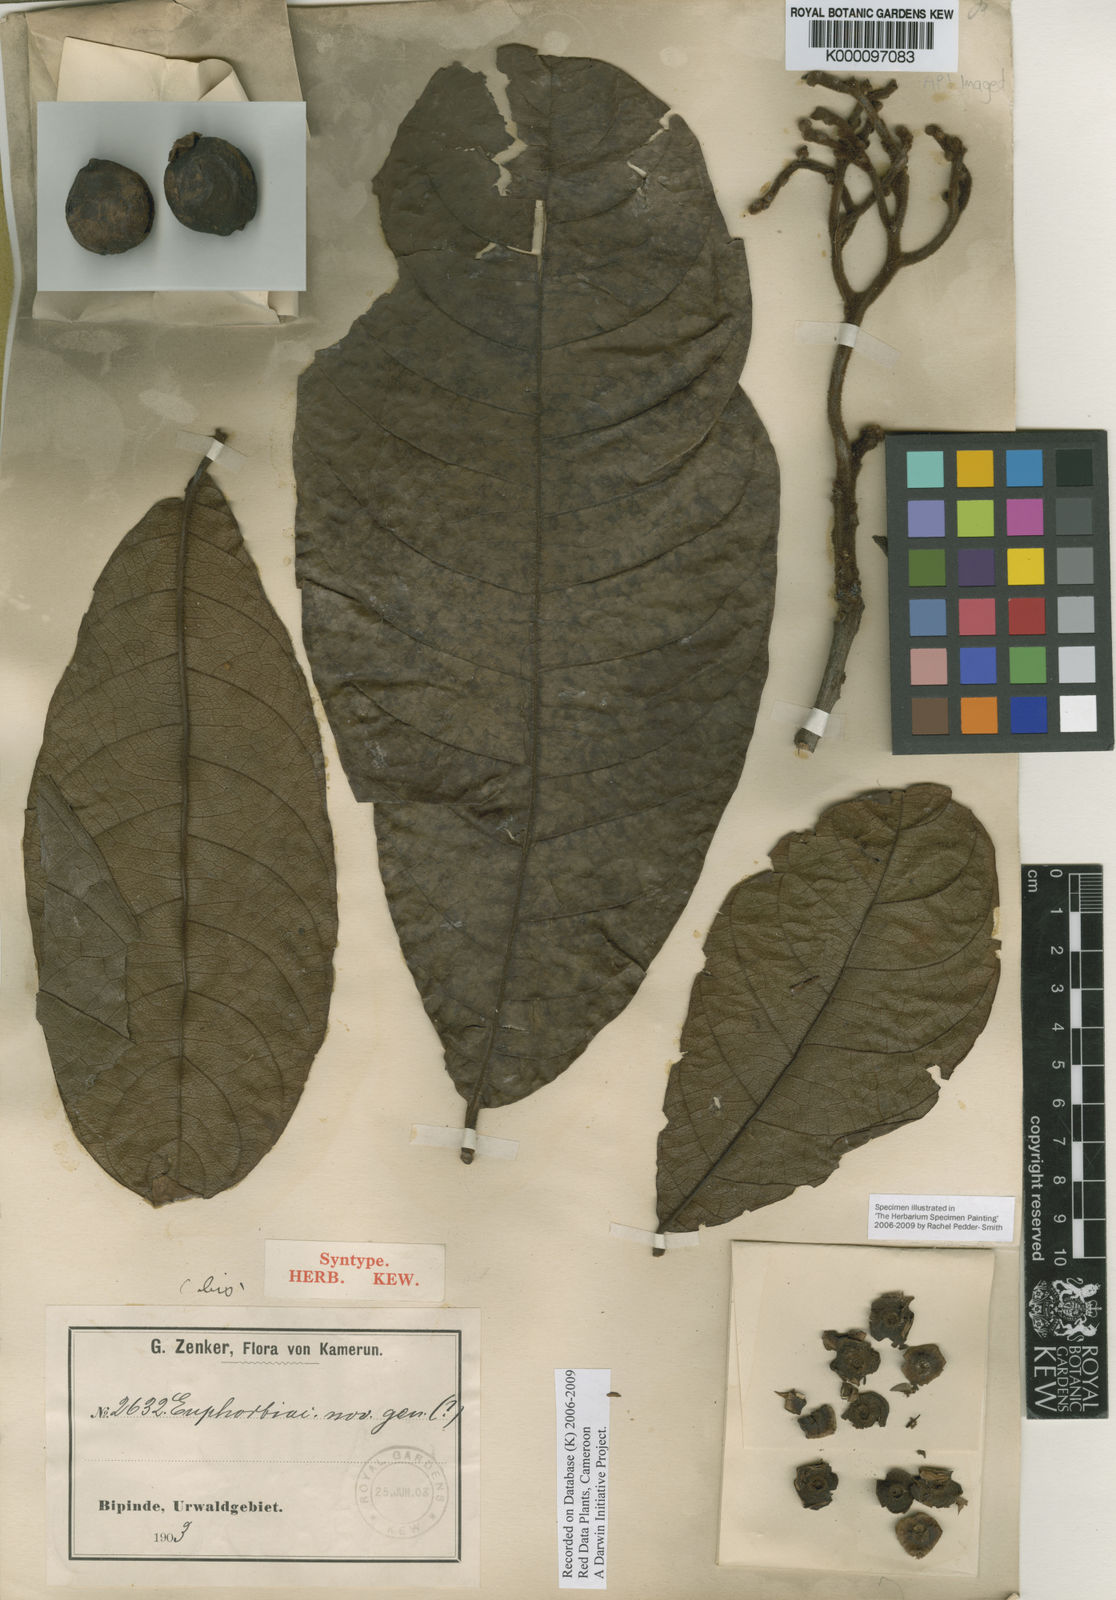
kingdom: Plantae
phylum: Tracheophyta
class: Magnoliopsida
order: Boraginales
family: Hoplestigmataceae
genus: Hoplestigma
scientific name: Hoplestigma pierreanum
